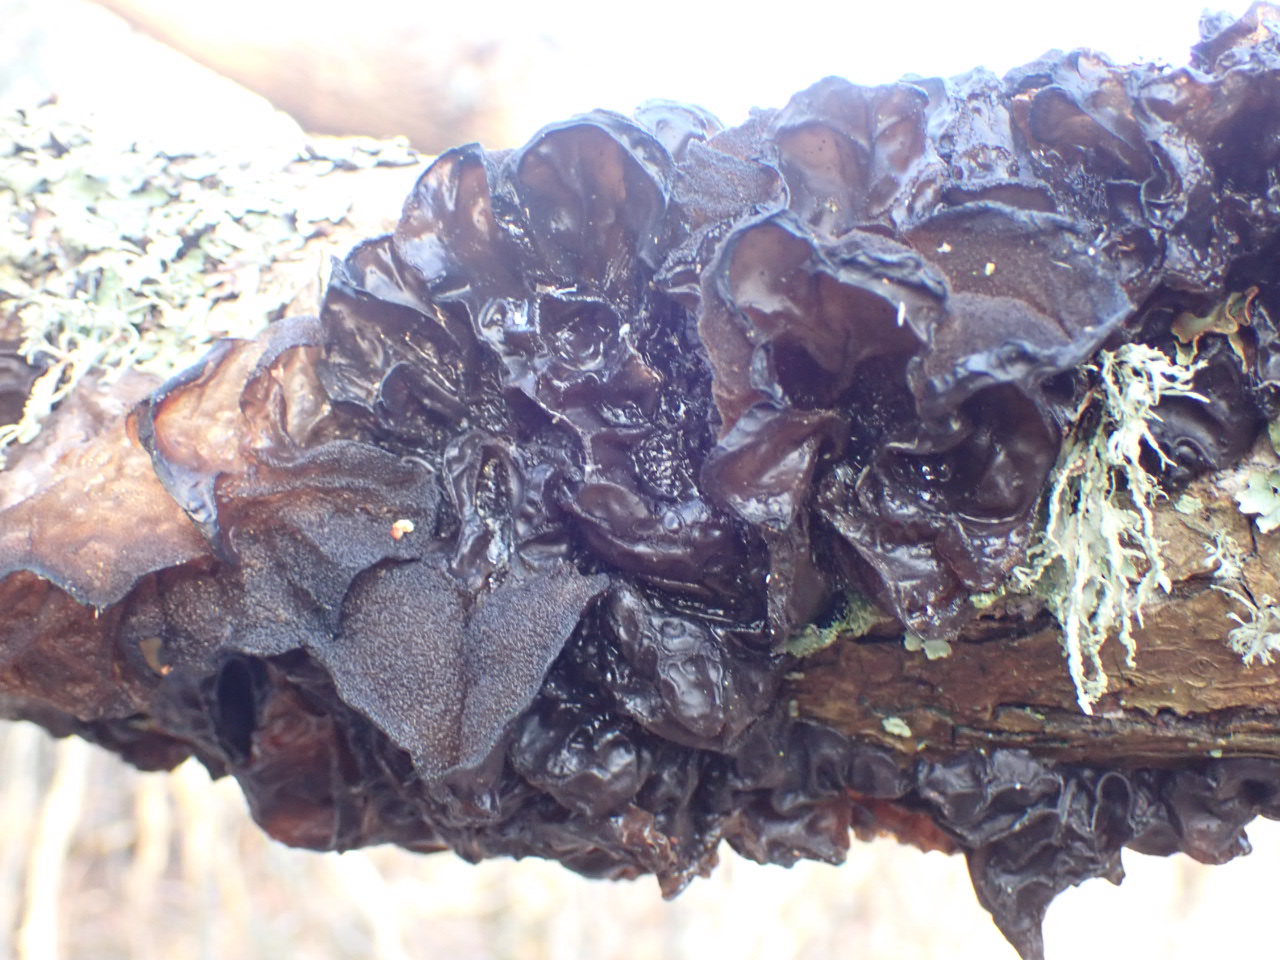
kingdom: Fungi
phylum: Basidiomycota
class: Agaricomycetes
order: Auriculariales
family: Auriculariaceae
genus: Exidia
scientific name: Exidia glandulosa
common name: ege-bævretop
